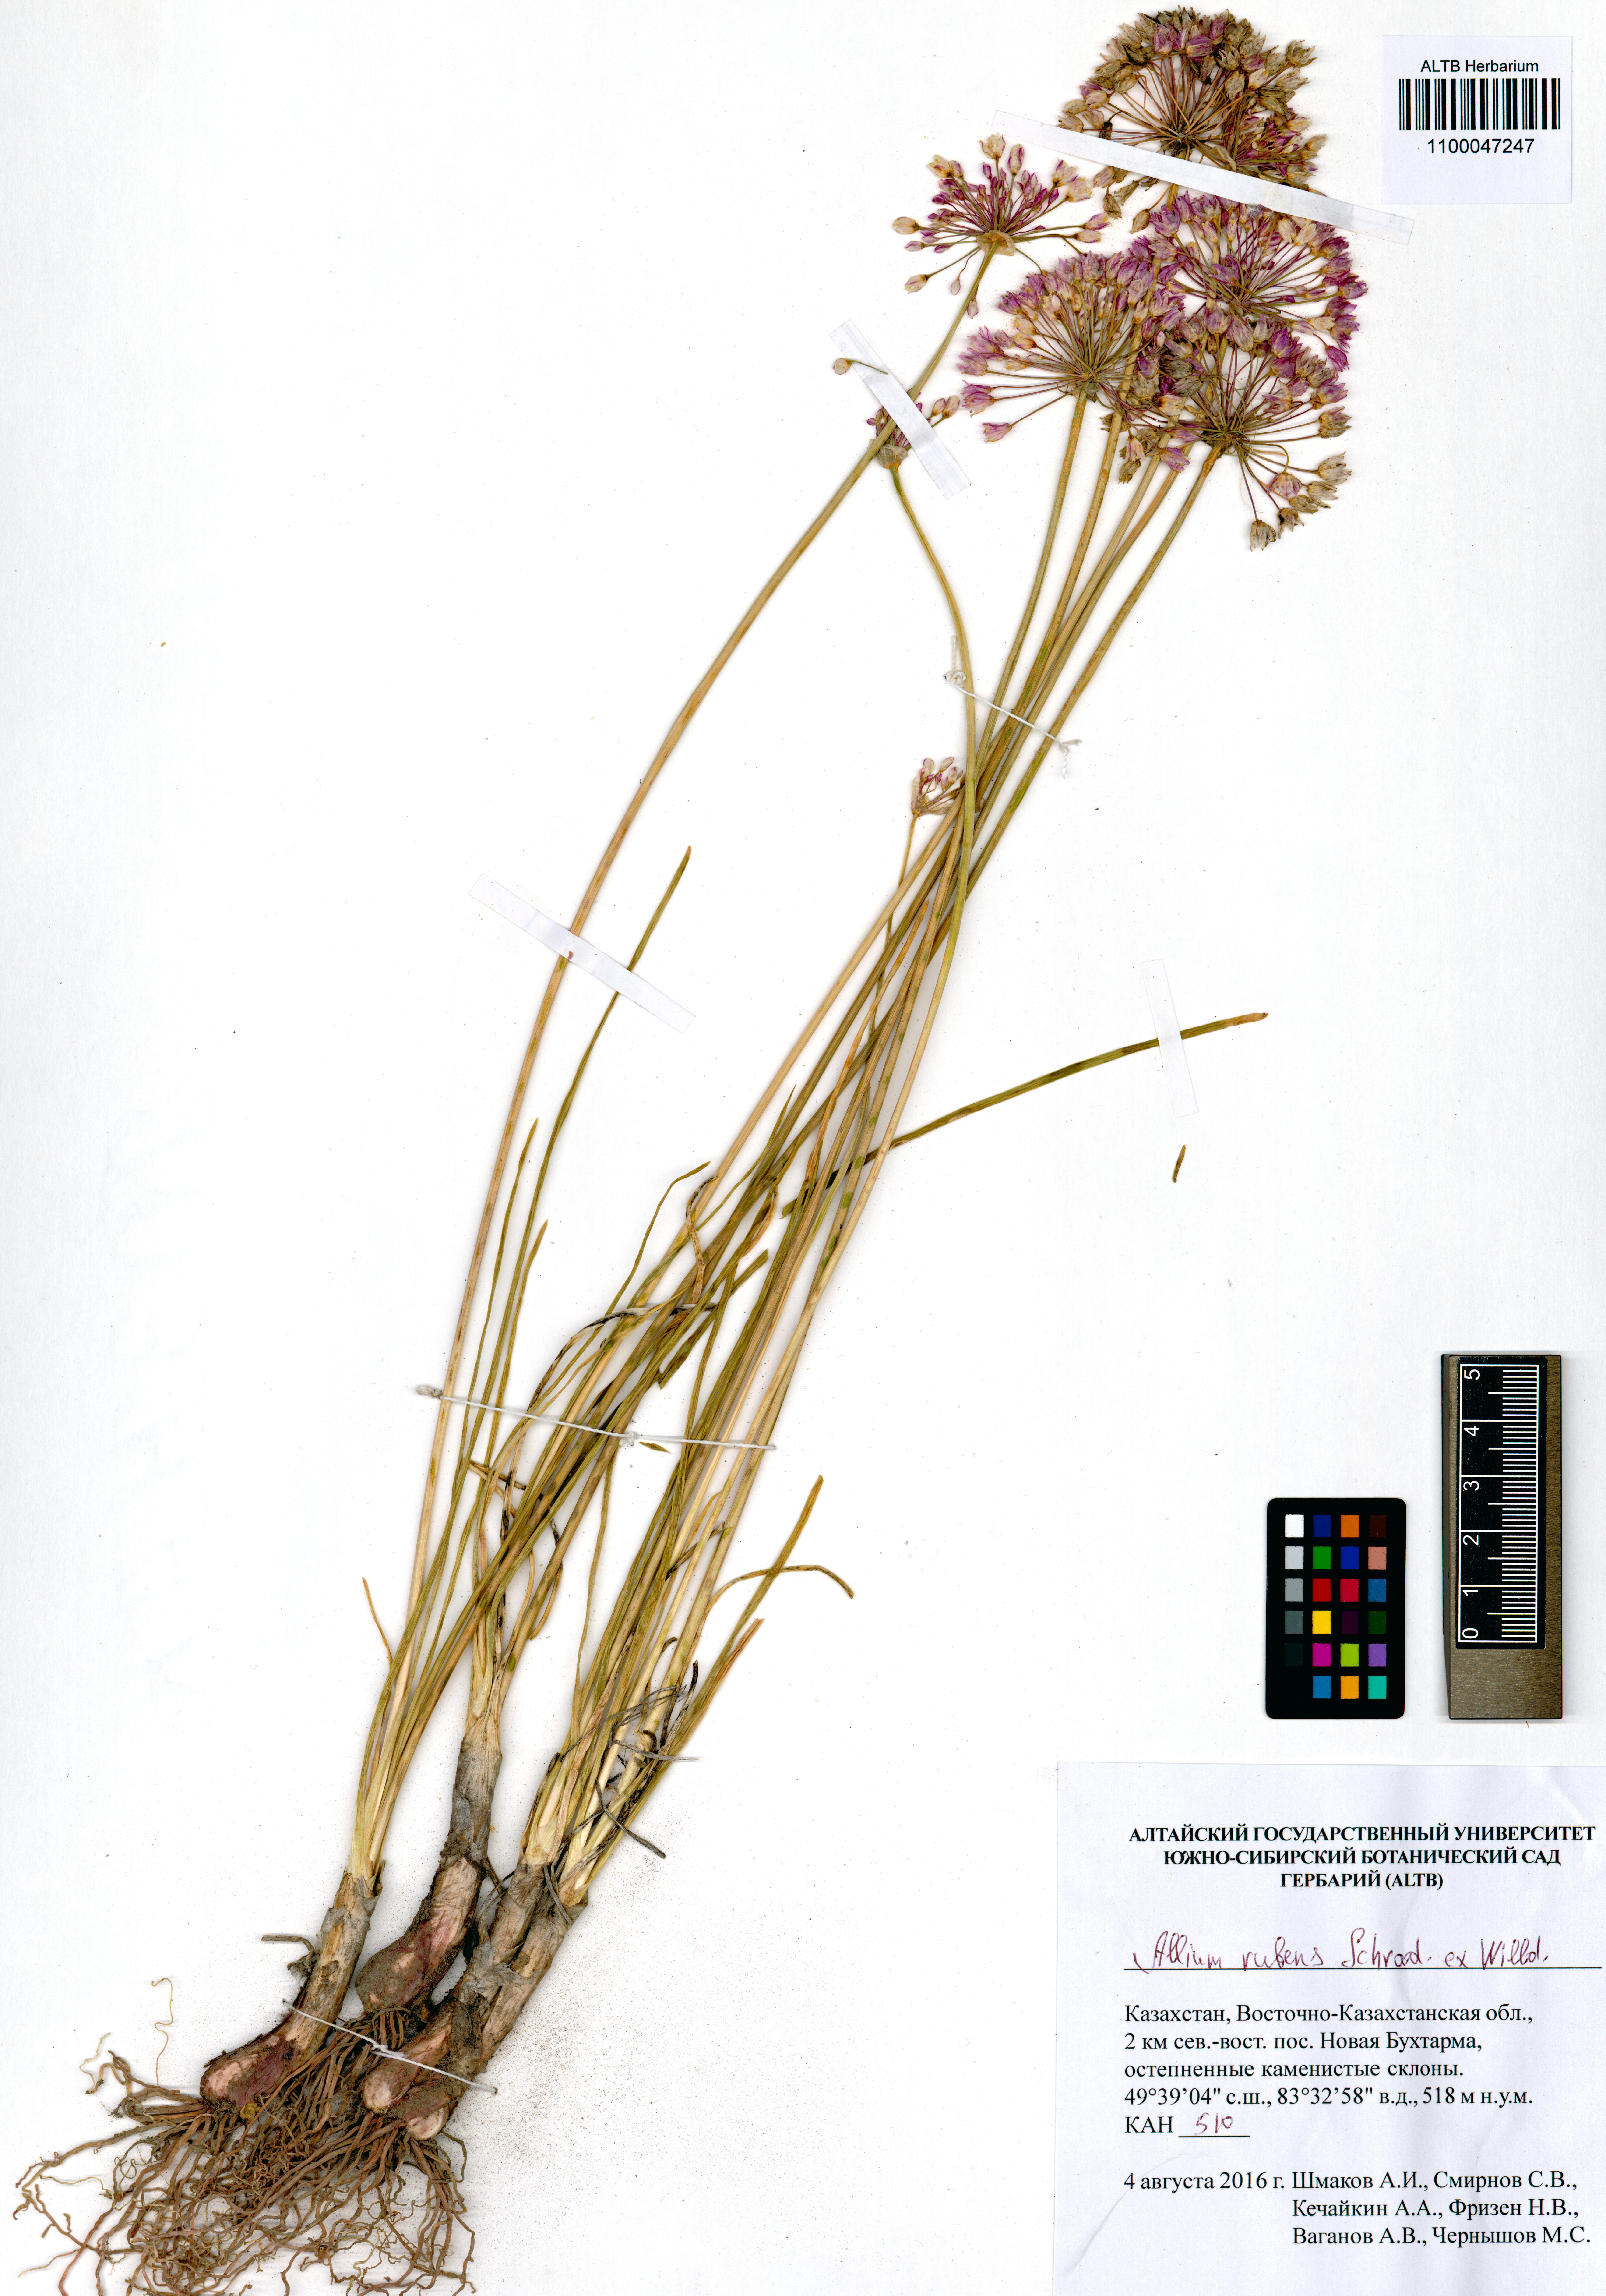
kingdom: Plantae
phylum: Tracheophyta
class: Liliopsida
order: Asparagales
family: Amaryllidaceae
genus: Allium
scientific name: Allium rubens
